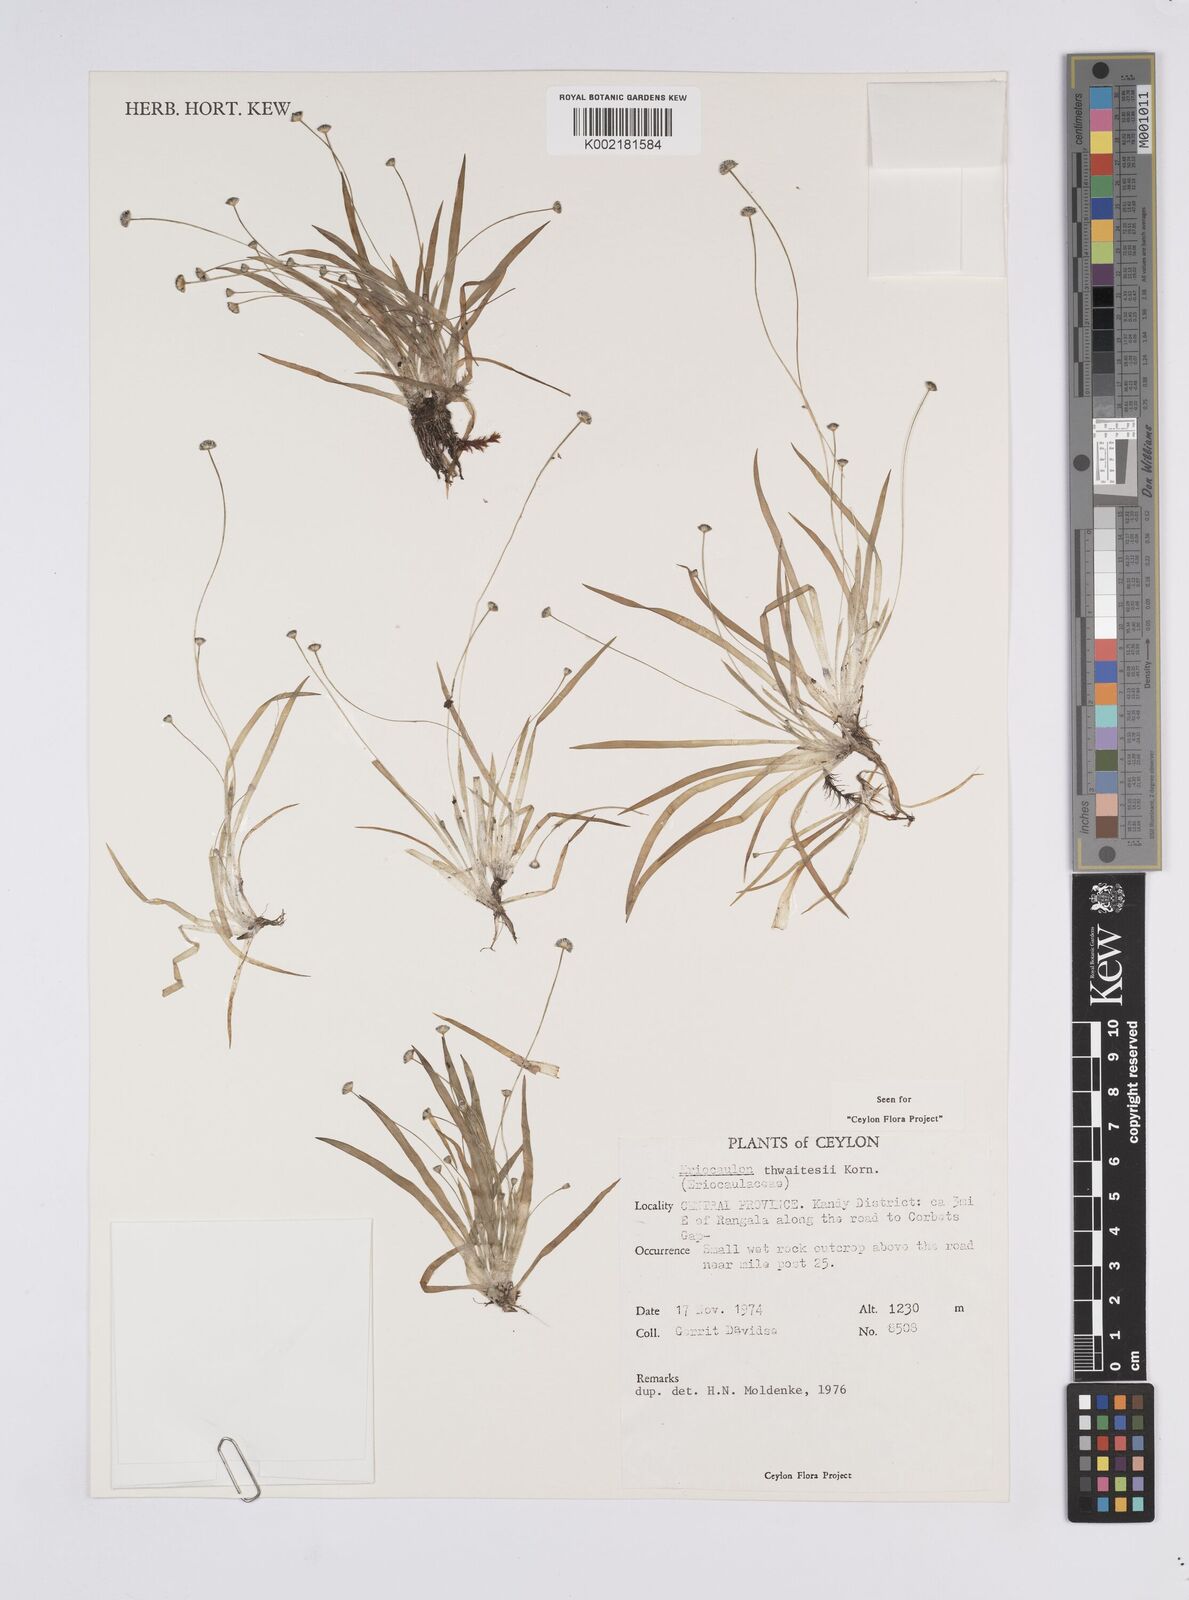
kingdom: Plantae
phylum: Tracheophyta
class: Liliopsida
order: Poales
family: Eriocaulaceae
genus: Eriocaulon
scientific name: Eriocaulon thwaitesii
